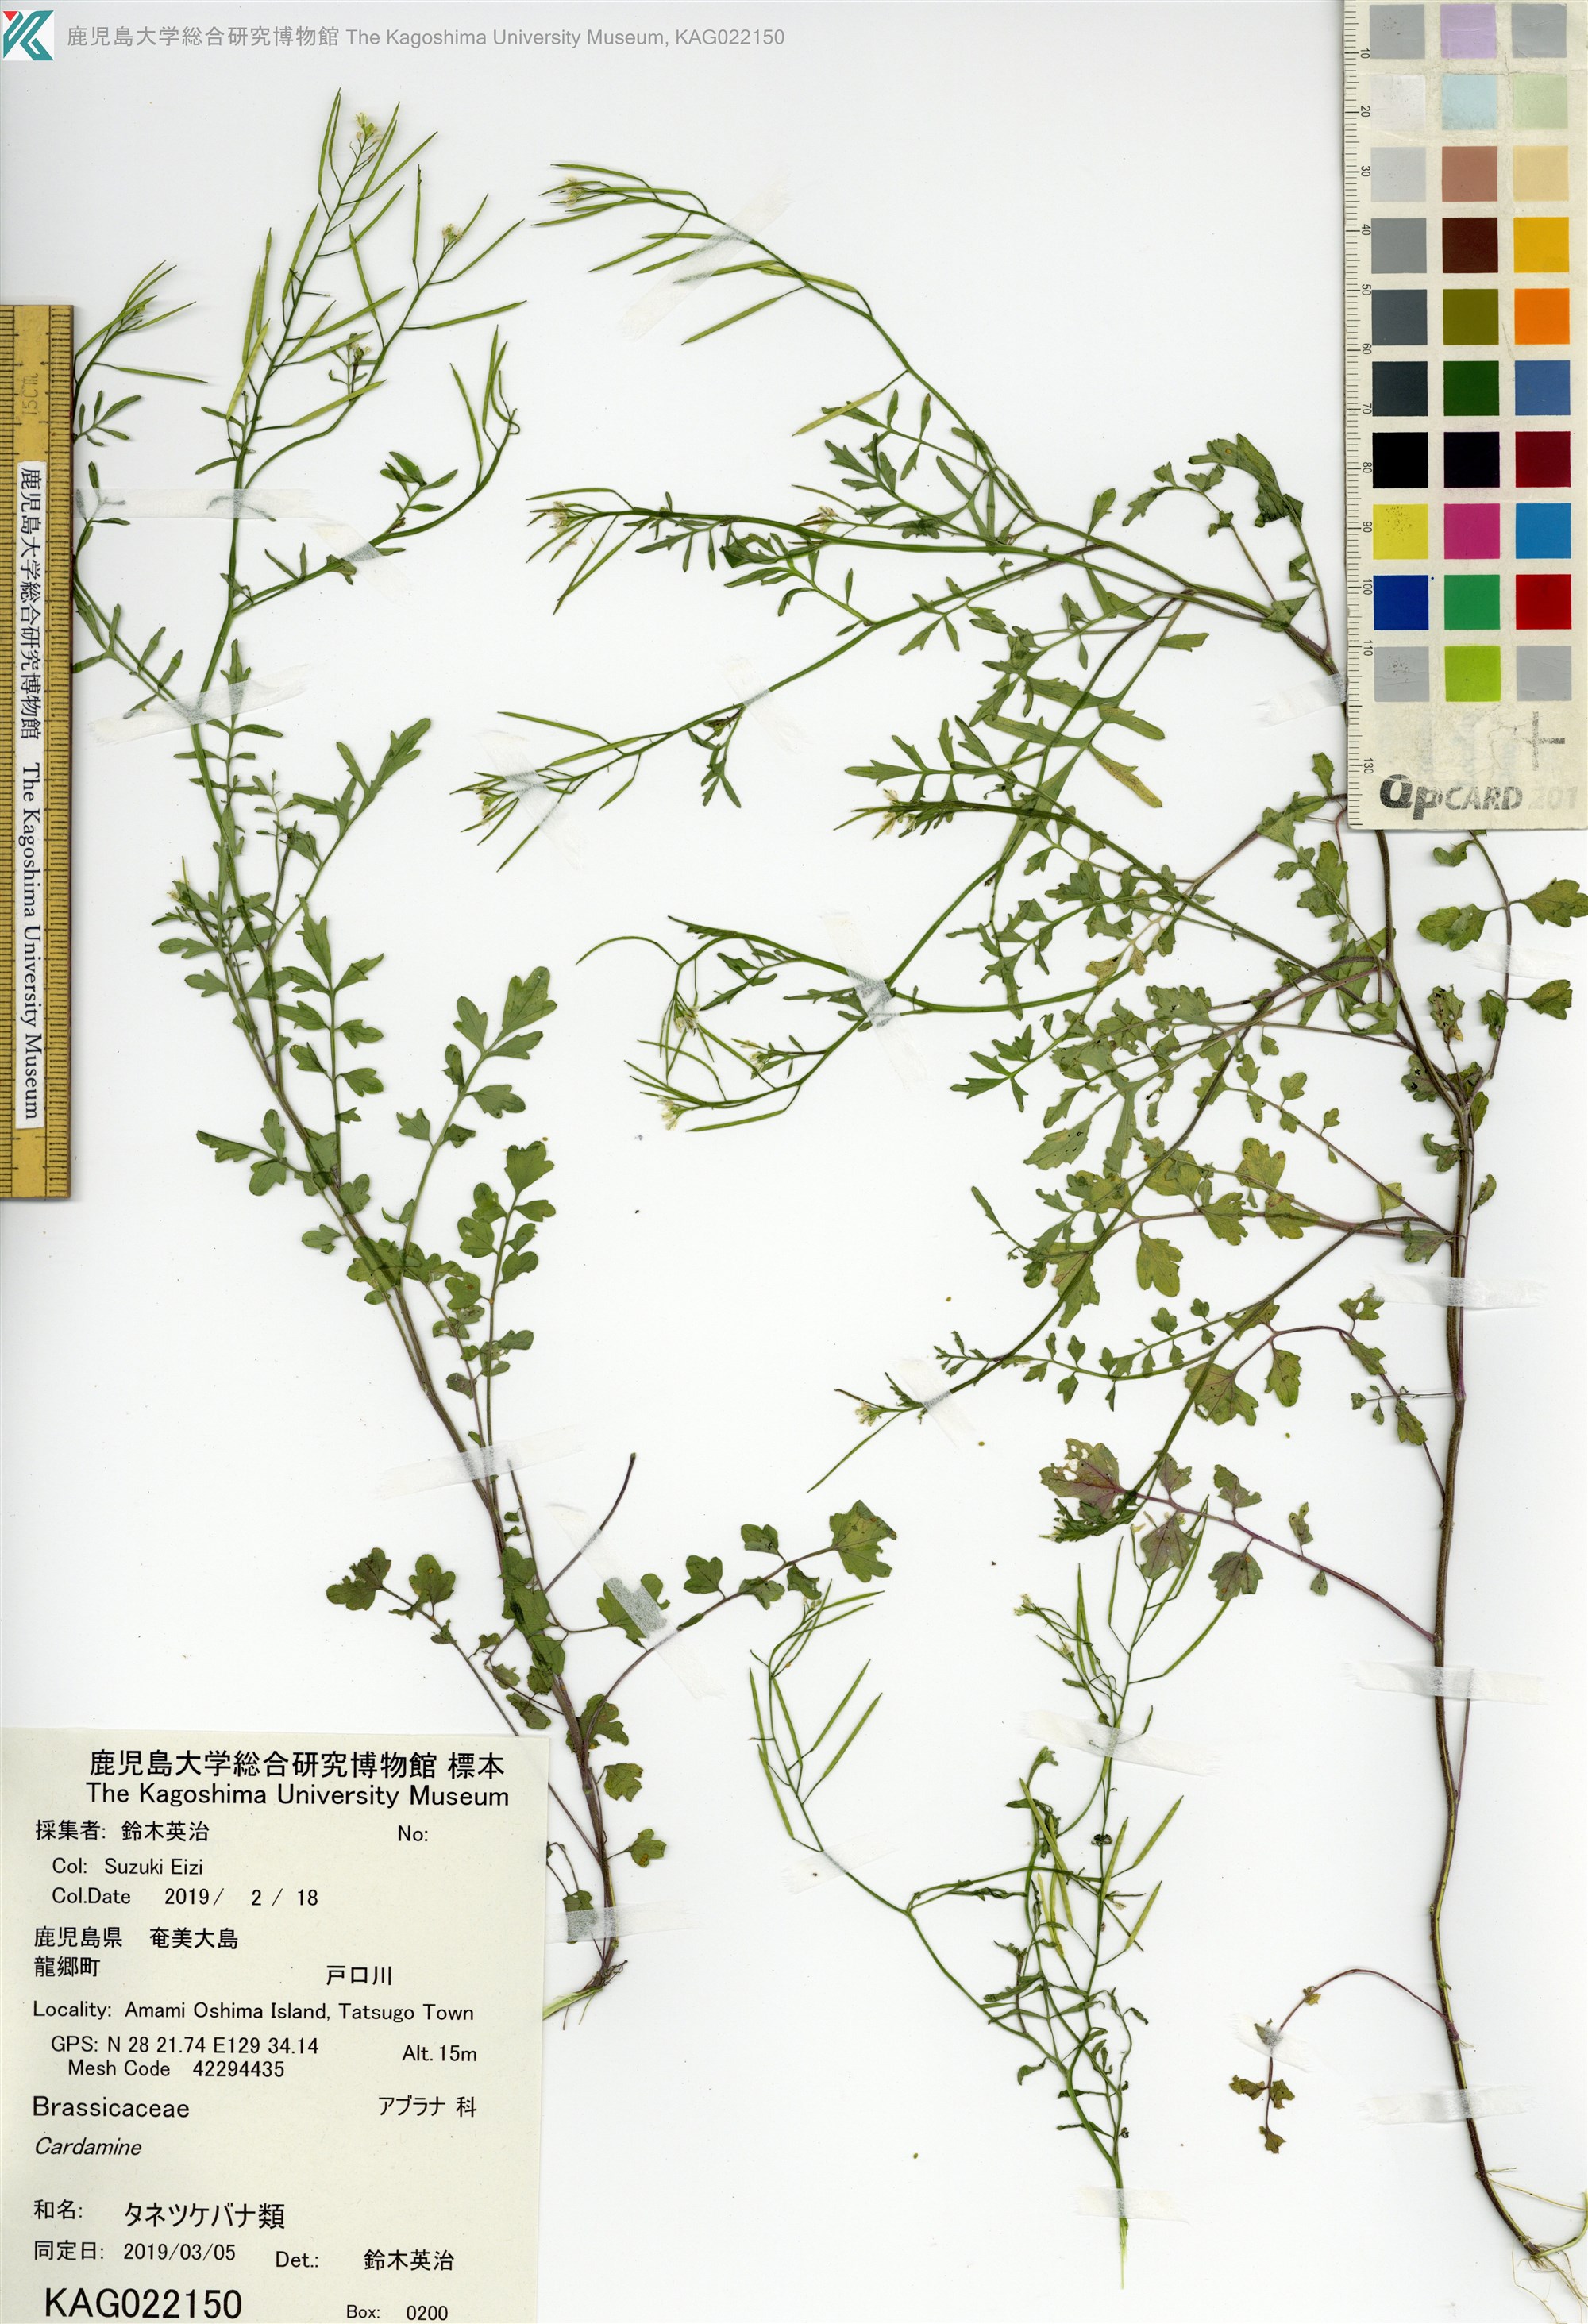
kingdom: Plantae
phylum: Tracheophyta
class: Magnoliopsida
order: Brassicales
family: Brassicaceae
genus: Cardamine
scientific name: Cardamine occulta
